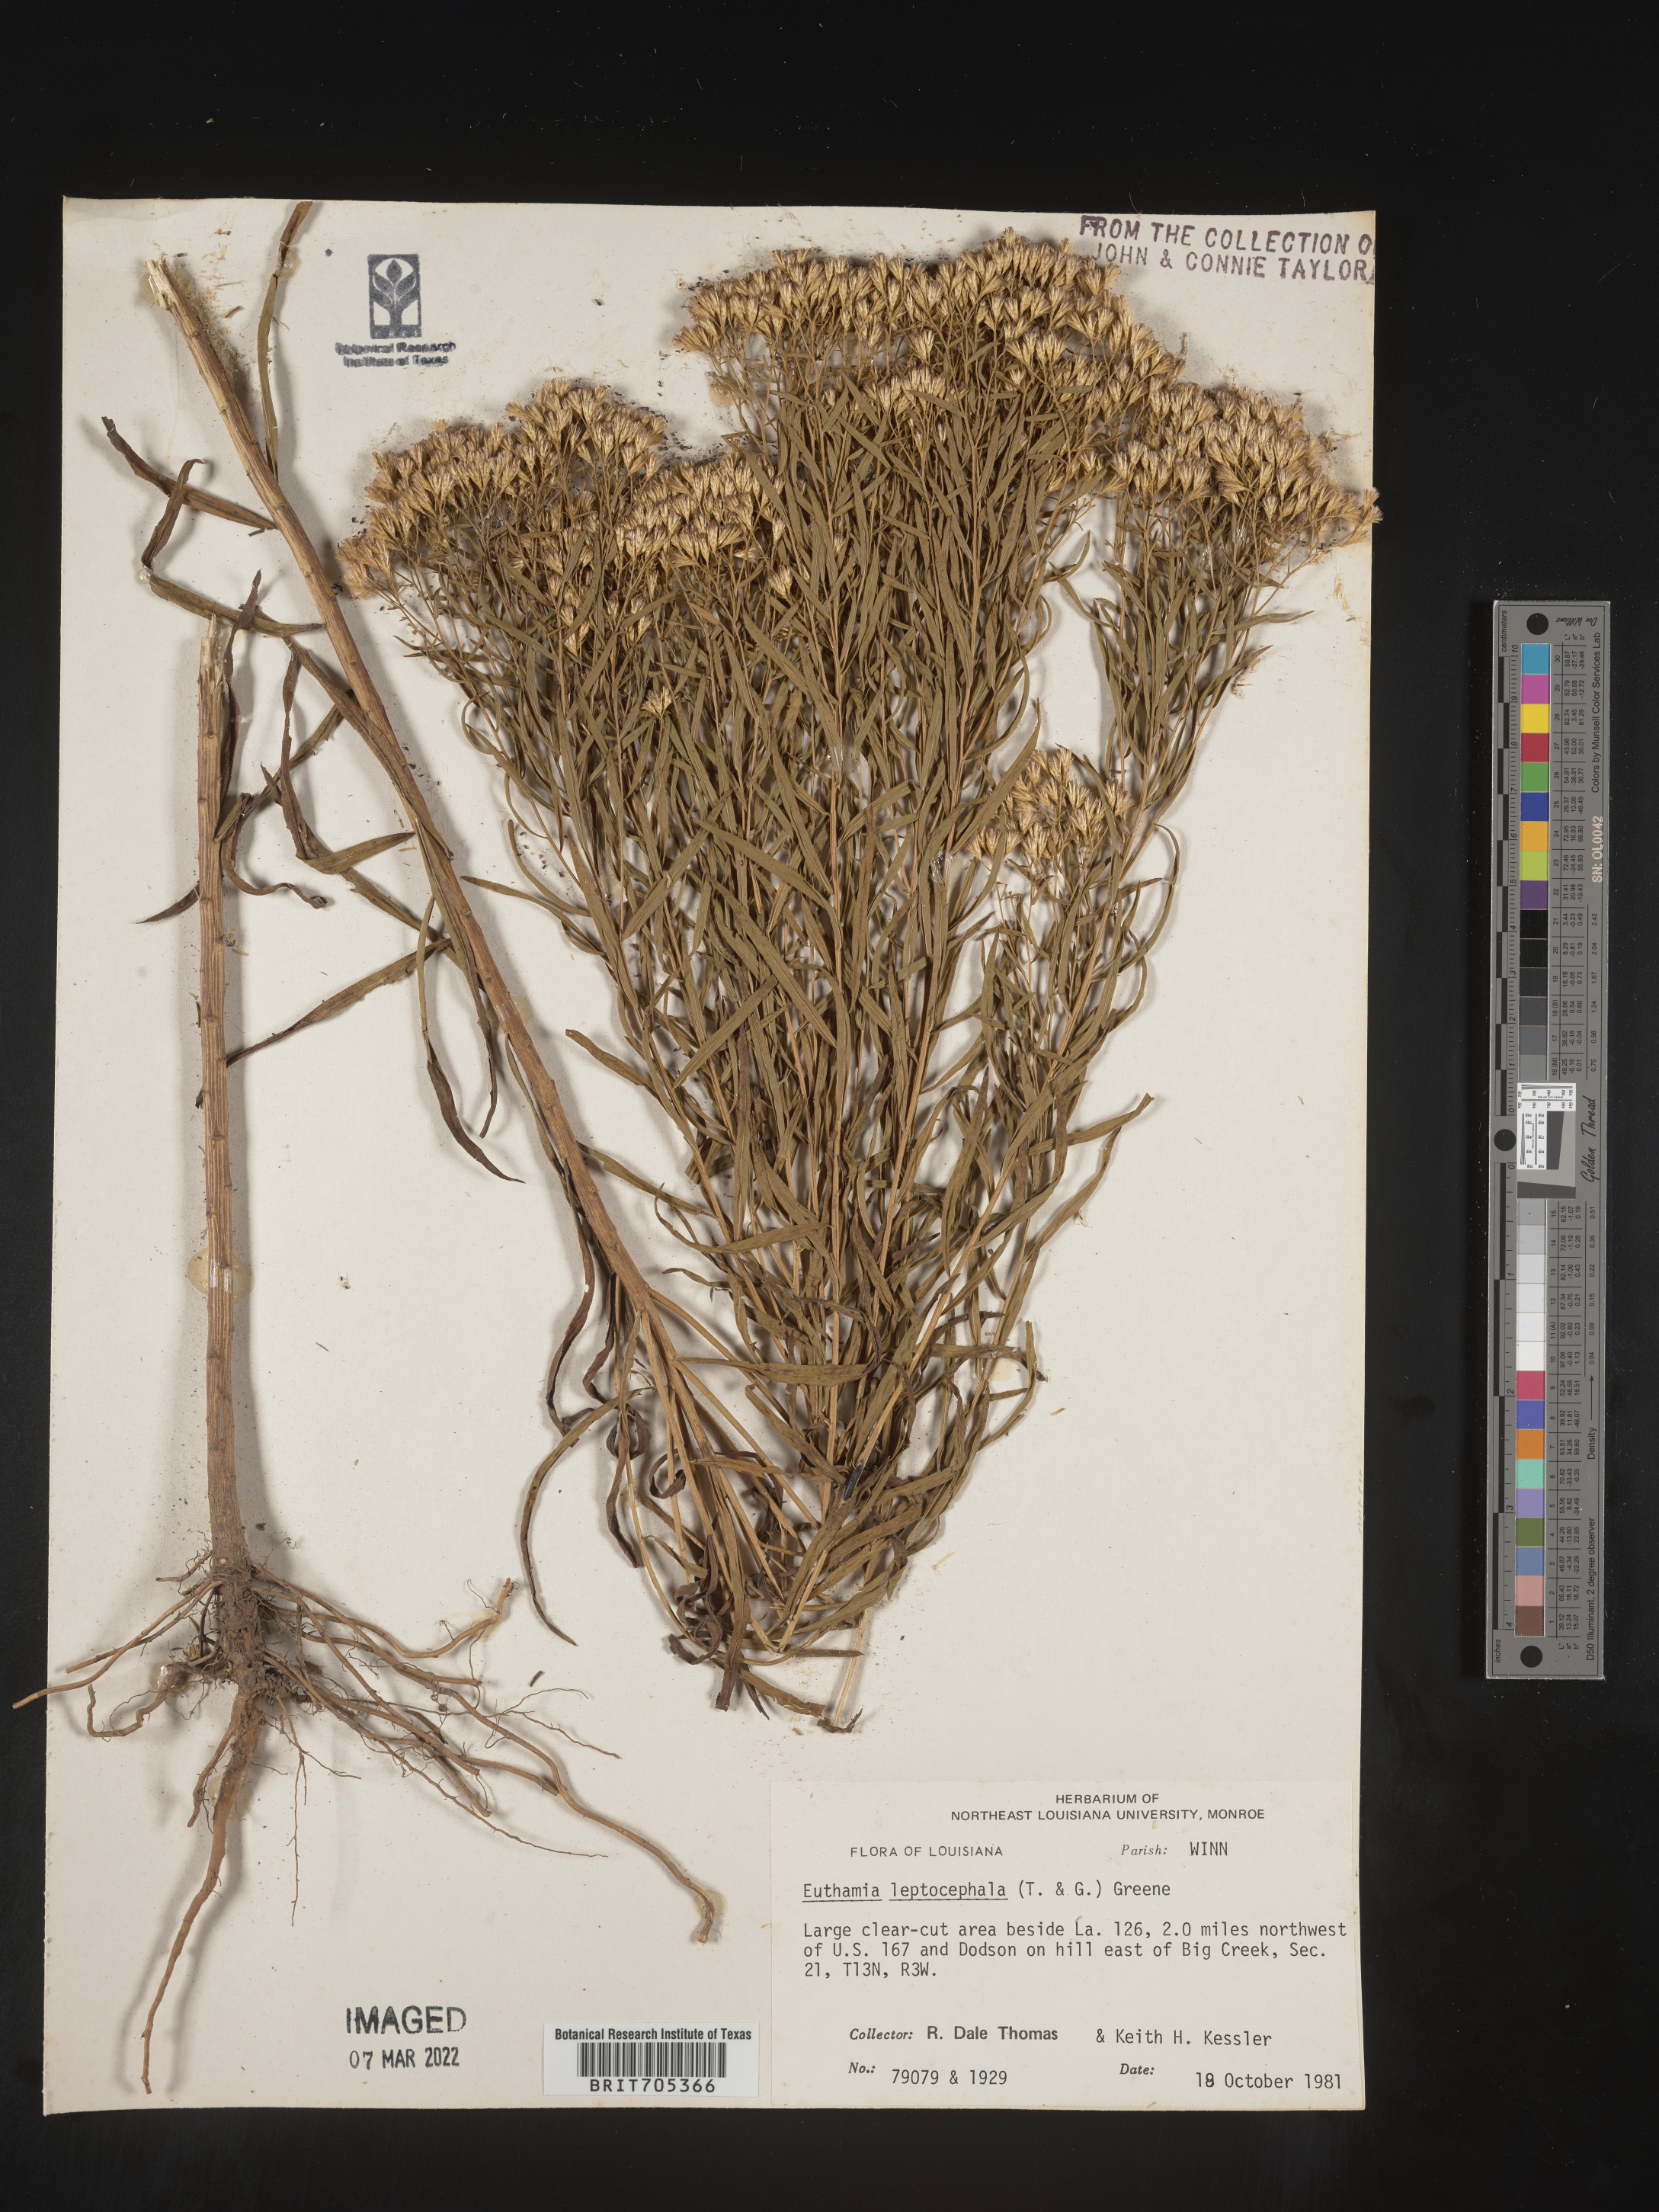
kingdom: Plantae
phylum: Tracheophyta
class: Magnoliopsida
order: Asterales
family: Asteraceae
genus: Euthamia
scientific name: Euthamia leptocephala
